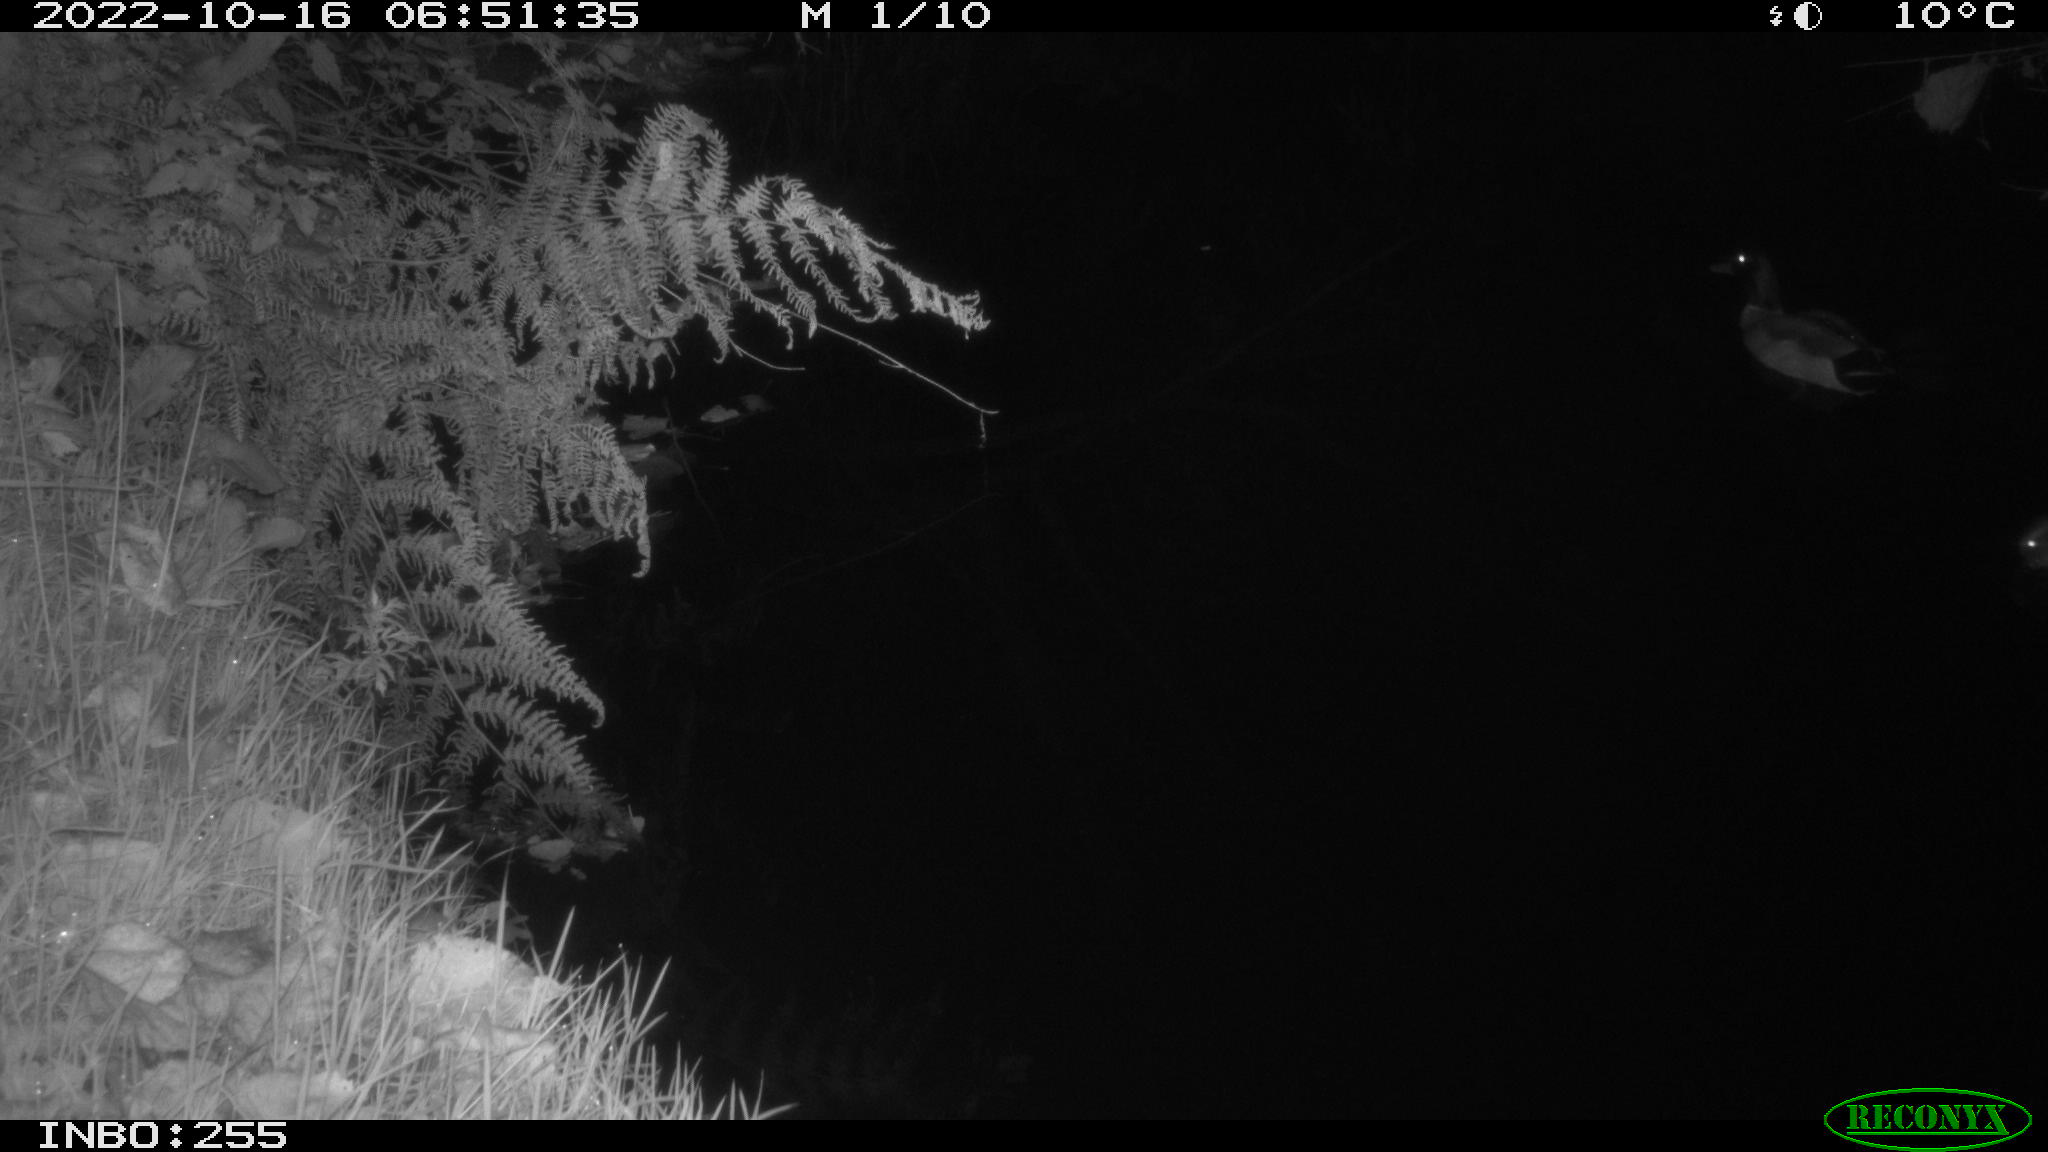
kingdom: Animalia
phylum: Chordata
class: Aves
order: Anseriformes
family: Anatidae
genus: Anas
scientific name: Anas
